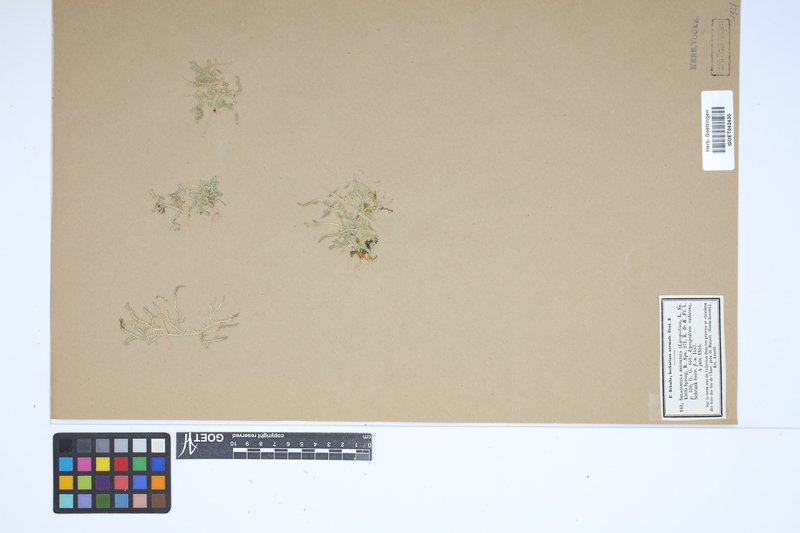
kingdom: Plantae
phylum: Tracheophyta
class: Lycopodiopsida
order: Selaginellales
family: Selaginellaceae
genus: Selaginella
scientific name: Selaginella helvetica
